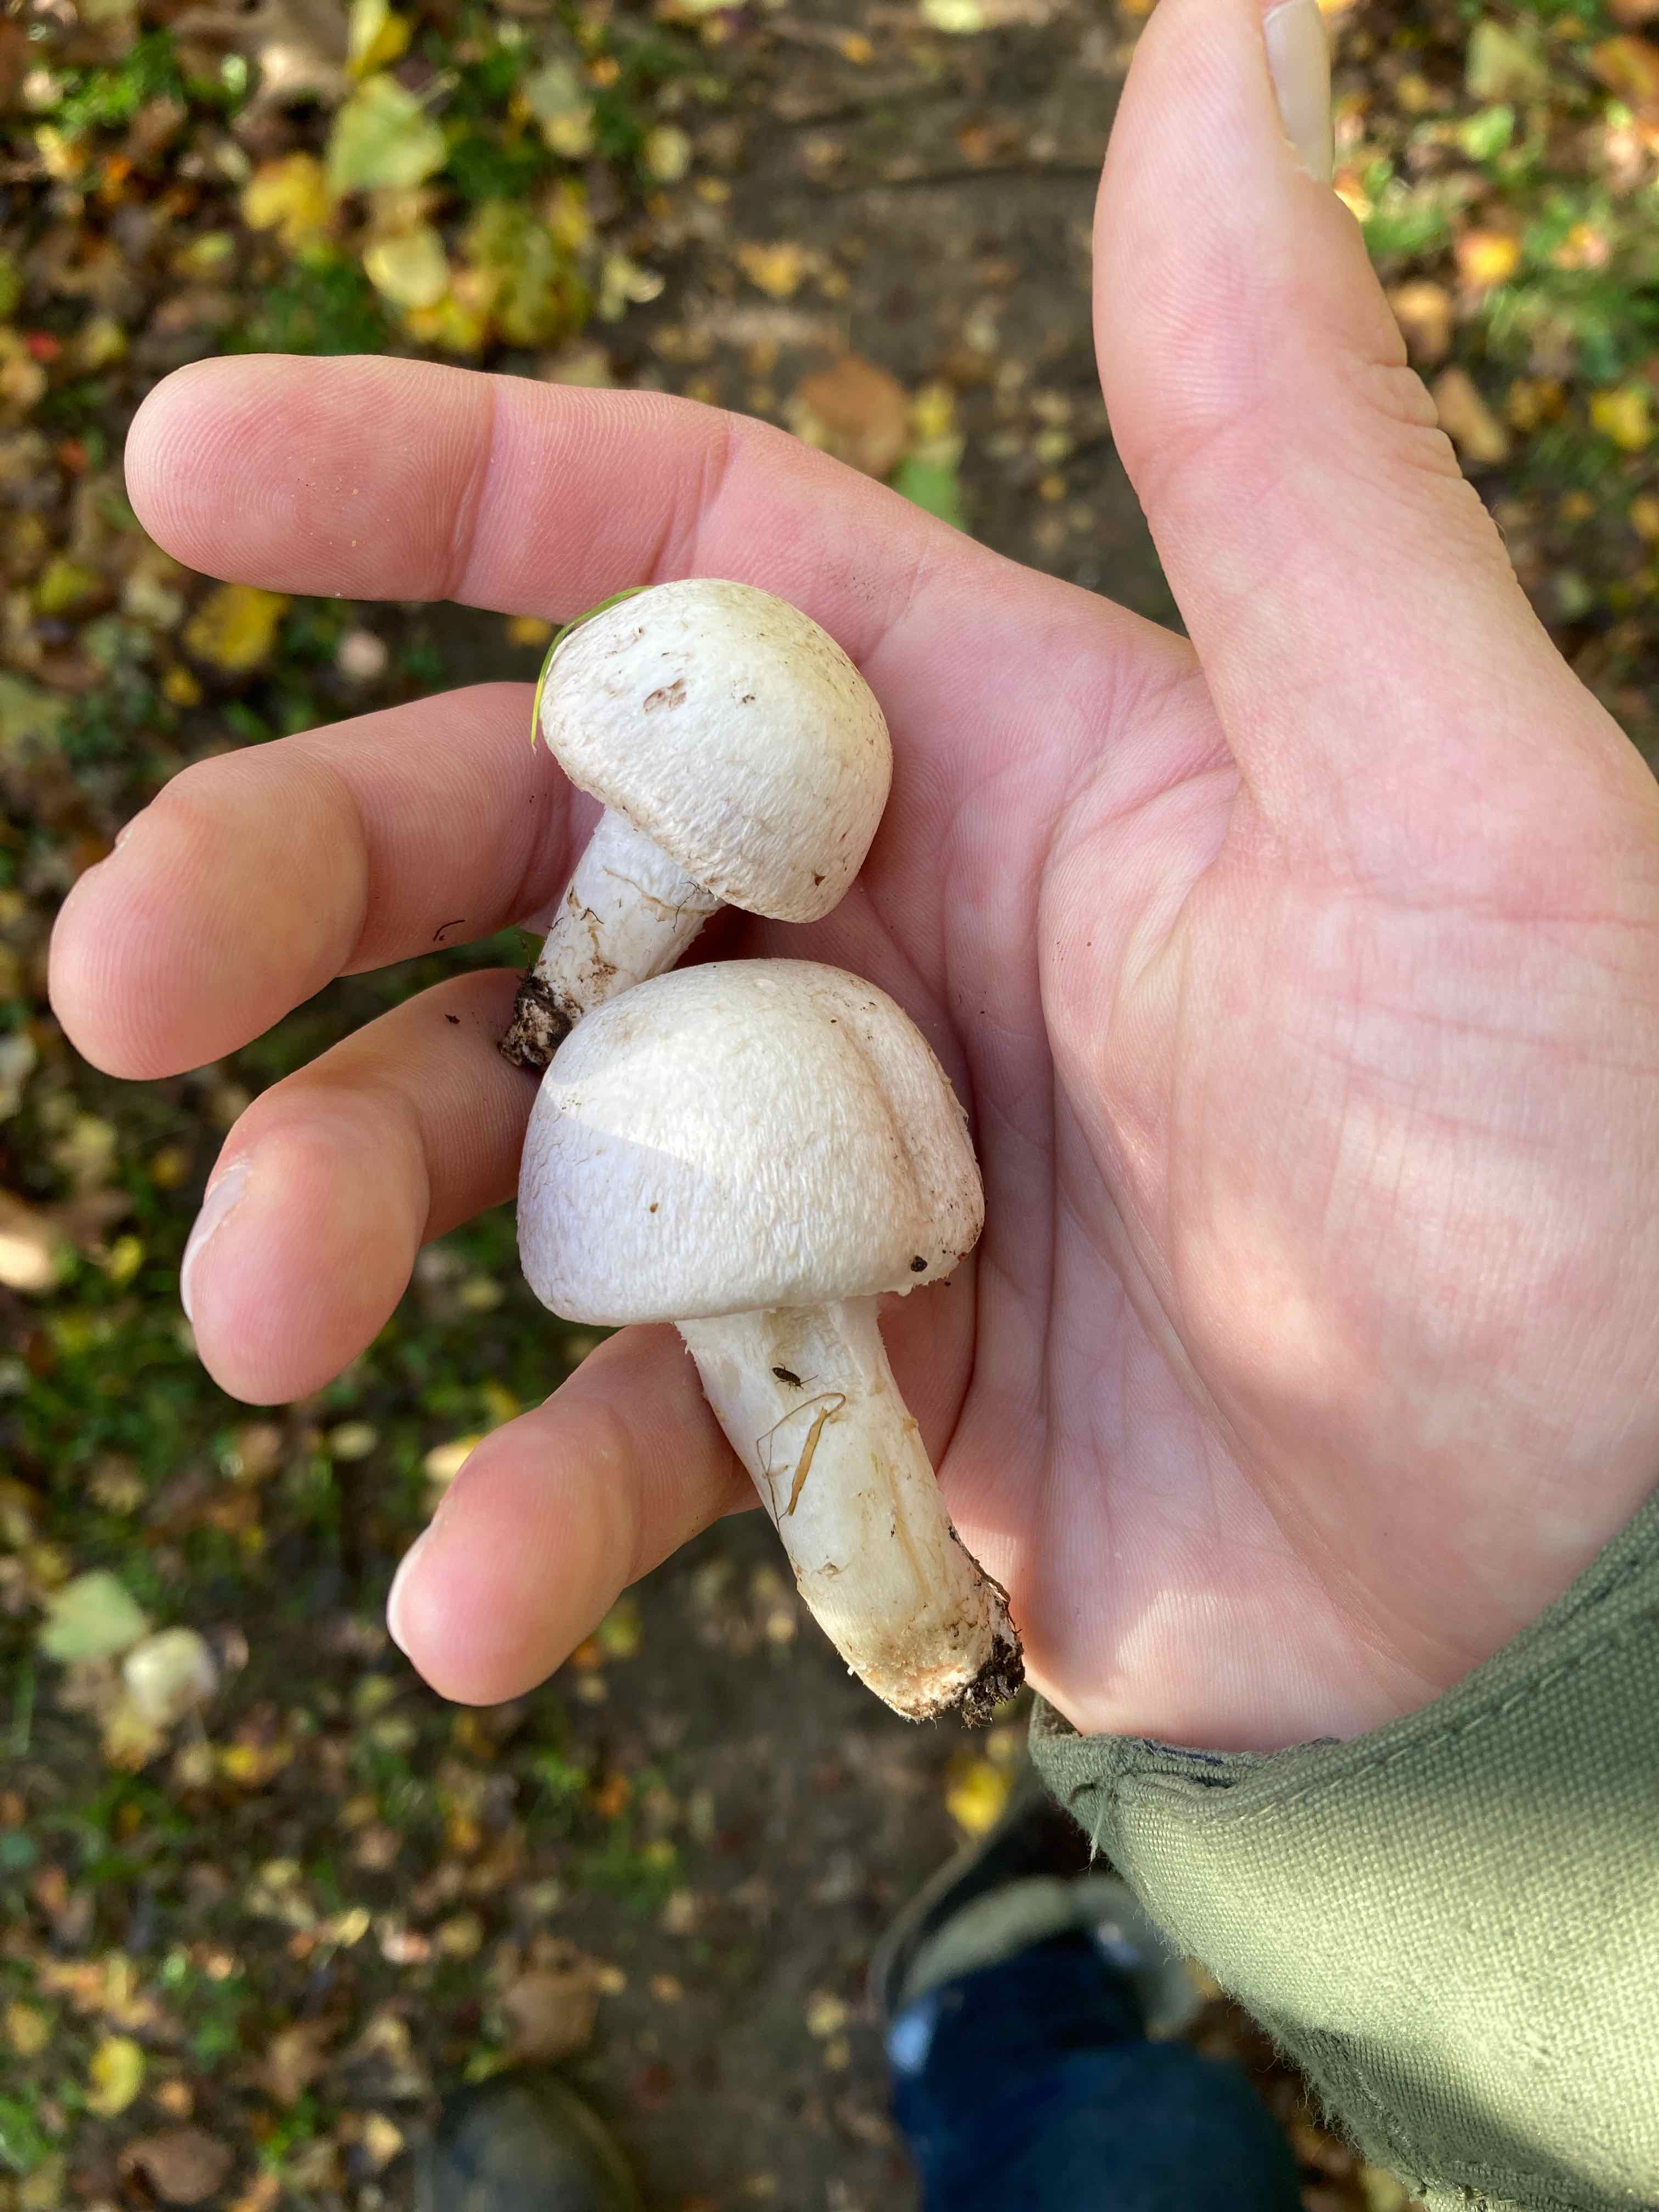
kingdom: Fungi
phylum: Basidiomycota
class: Agaricomycetes
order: Agaricales
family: Agaricaceae
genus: Agaricus
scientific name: Agaricus
